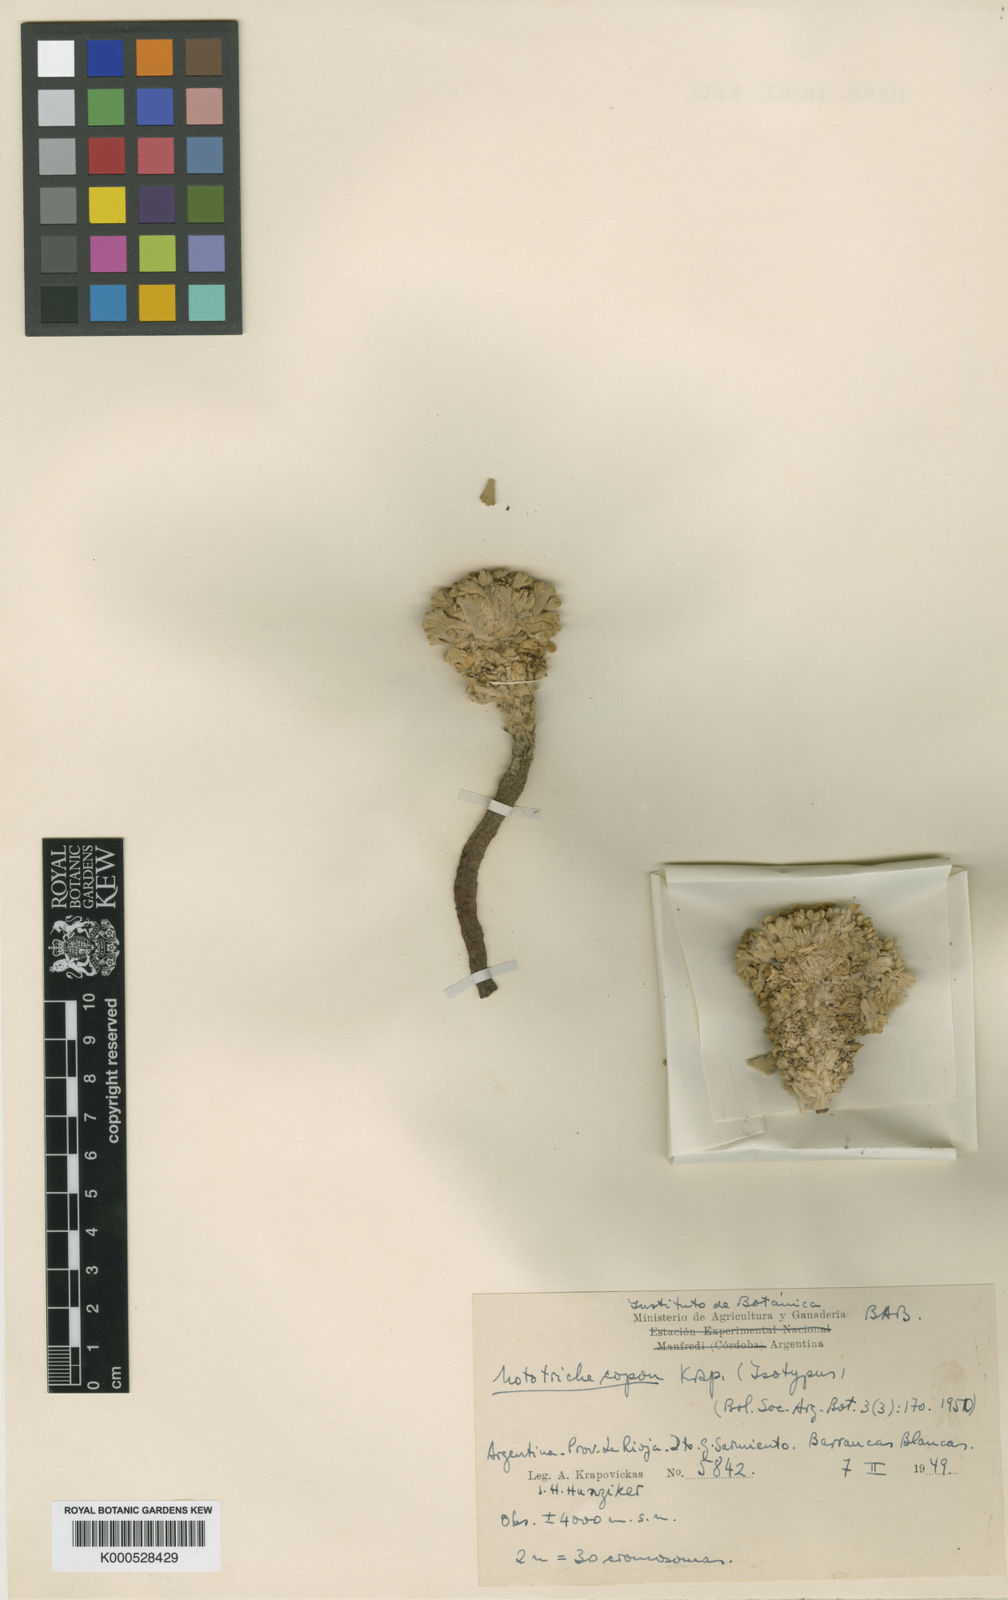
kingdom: Plantae
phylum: Tracheophyta
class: Magnoliopsida
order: Malvales
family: Malvaceae
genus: Nototriche
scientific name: Nototriche copon
